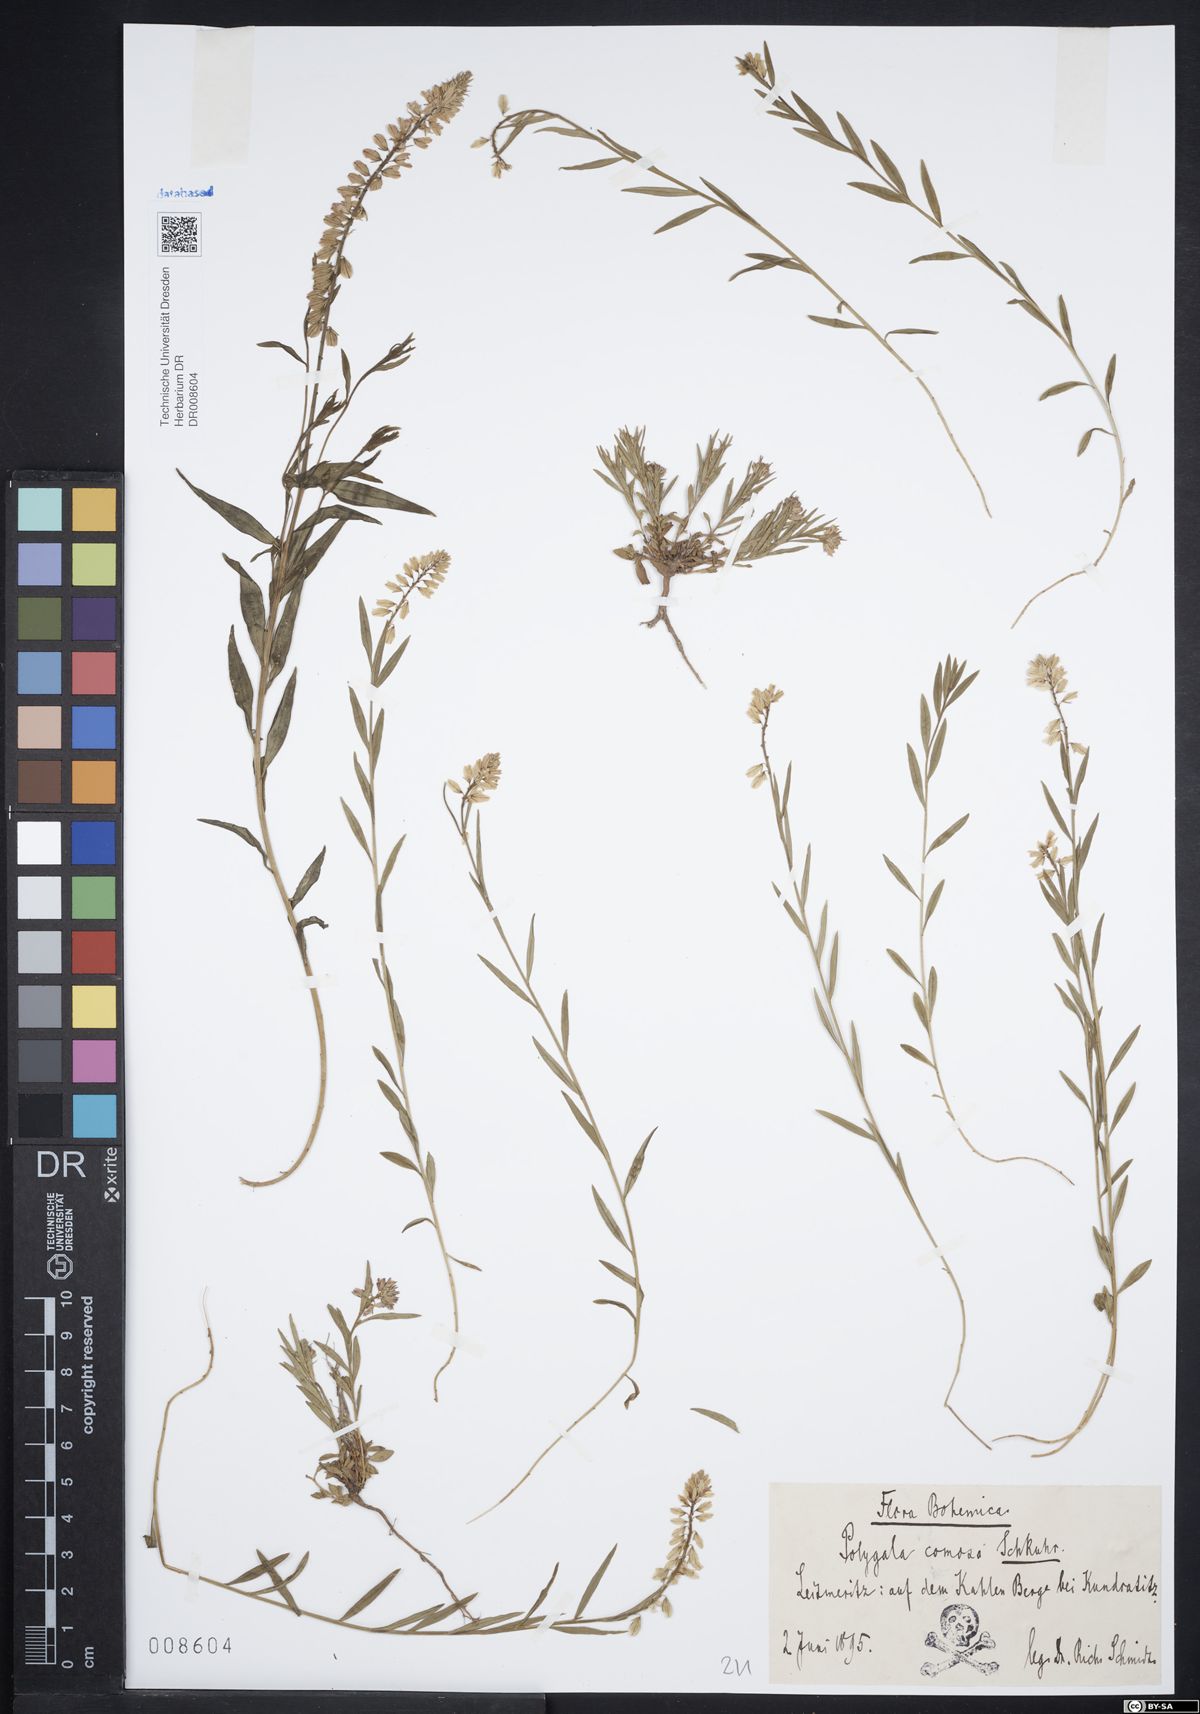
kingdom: Plantae
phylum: Tracheophyta
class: Magnoliopsida
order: Fabales
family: Polygalaceae
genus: Polygala
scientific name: Polygala comosa
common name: Tufted milkwort
